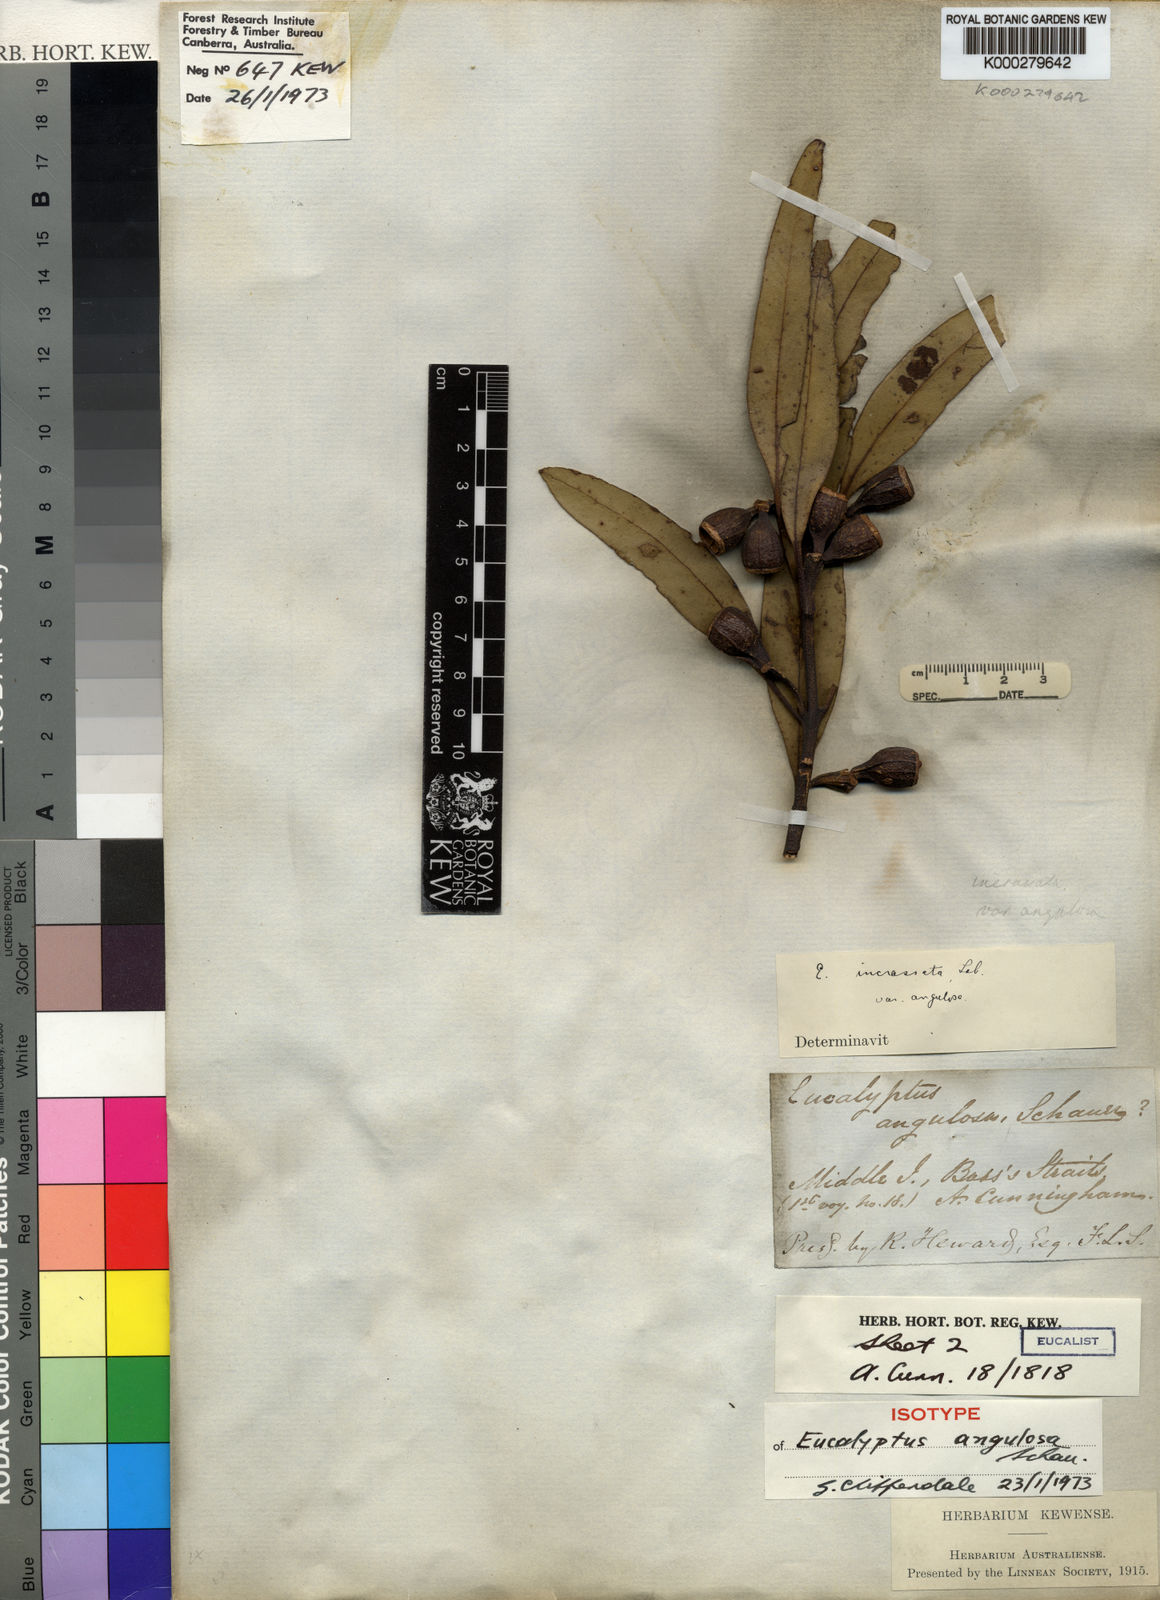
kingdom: Plantae
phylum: Tracheophyta
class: Magnoliopsida
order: Myrtales
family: Myrtaceae
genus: Eucalyptus
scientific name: Eucalyptus angulosa
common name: Ridge-fruited mallee
